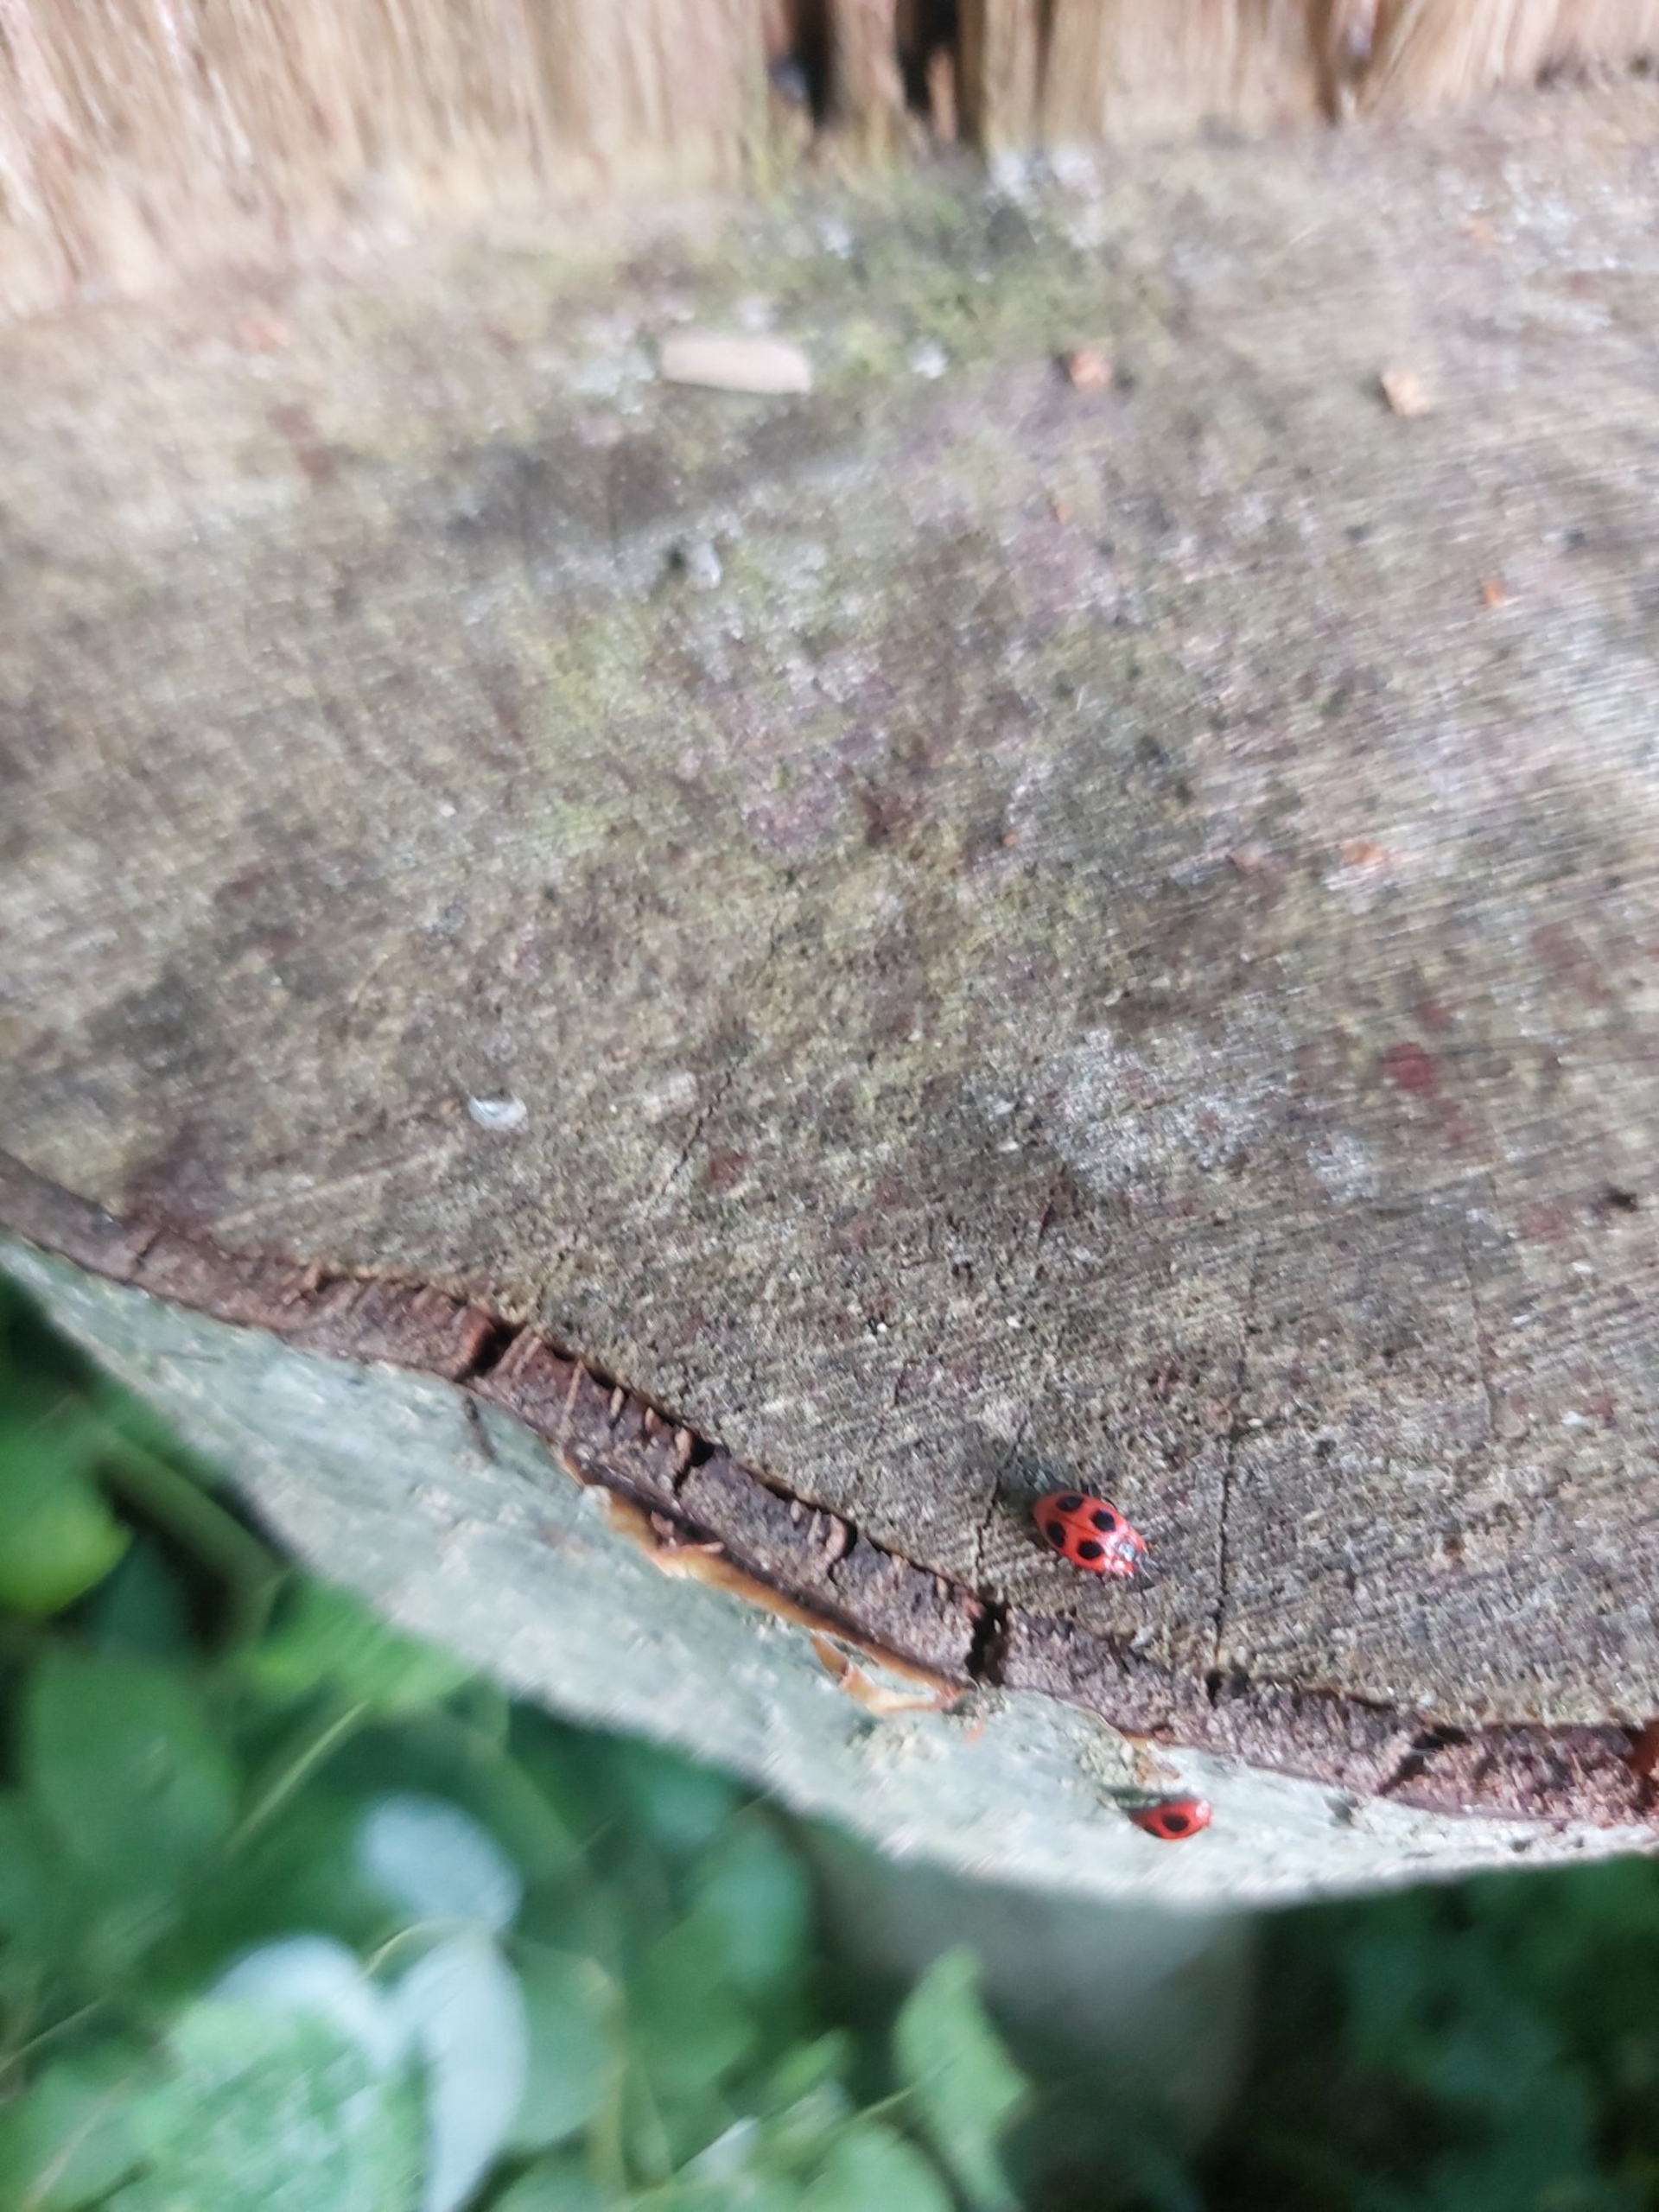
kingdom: Animalia
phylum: Arthropoda
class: Insecta
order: Coleoptera
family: Endomychidae
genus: Endomychus
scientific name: Endomychus coccineus
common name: Skarlagensvampehøne
